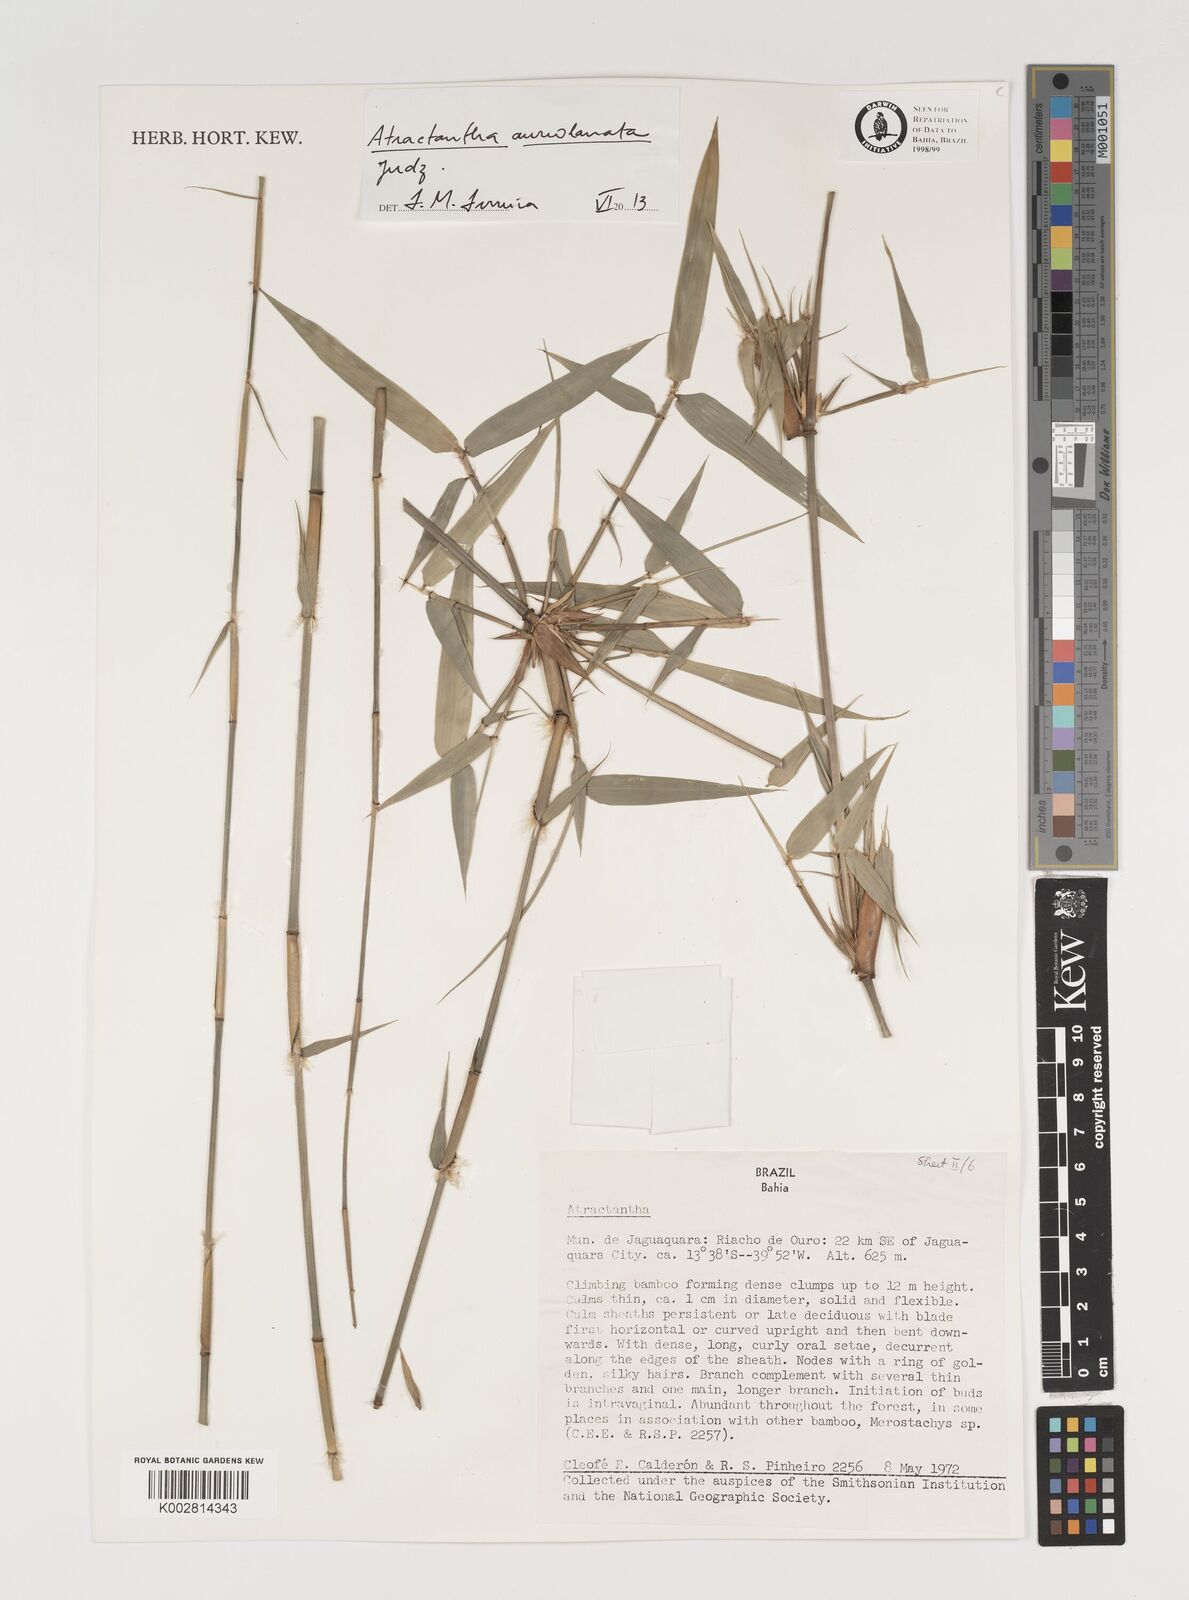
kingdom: Plantae
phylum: Tracheophyta
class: Liliopsida
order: Poales
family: Poaceae
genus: Atractantha
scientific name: Atractantha aureolanata
